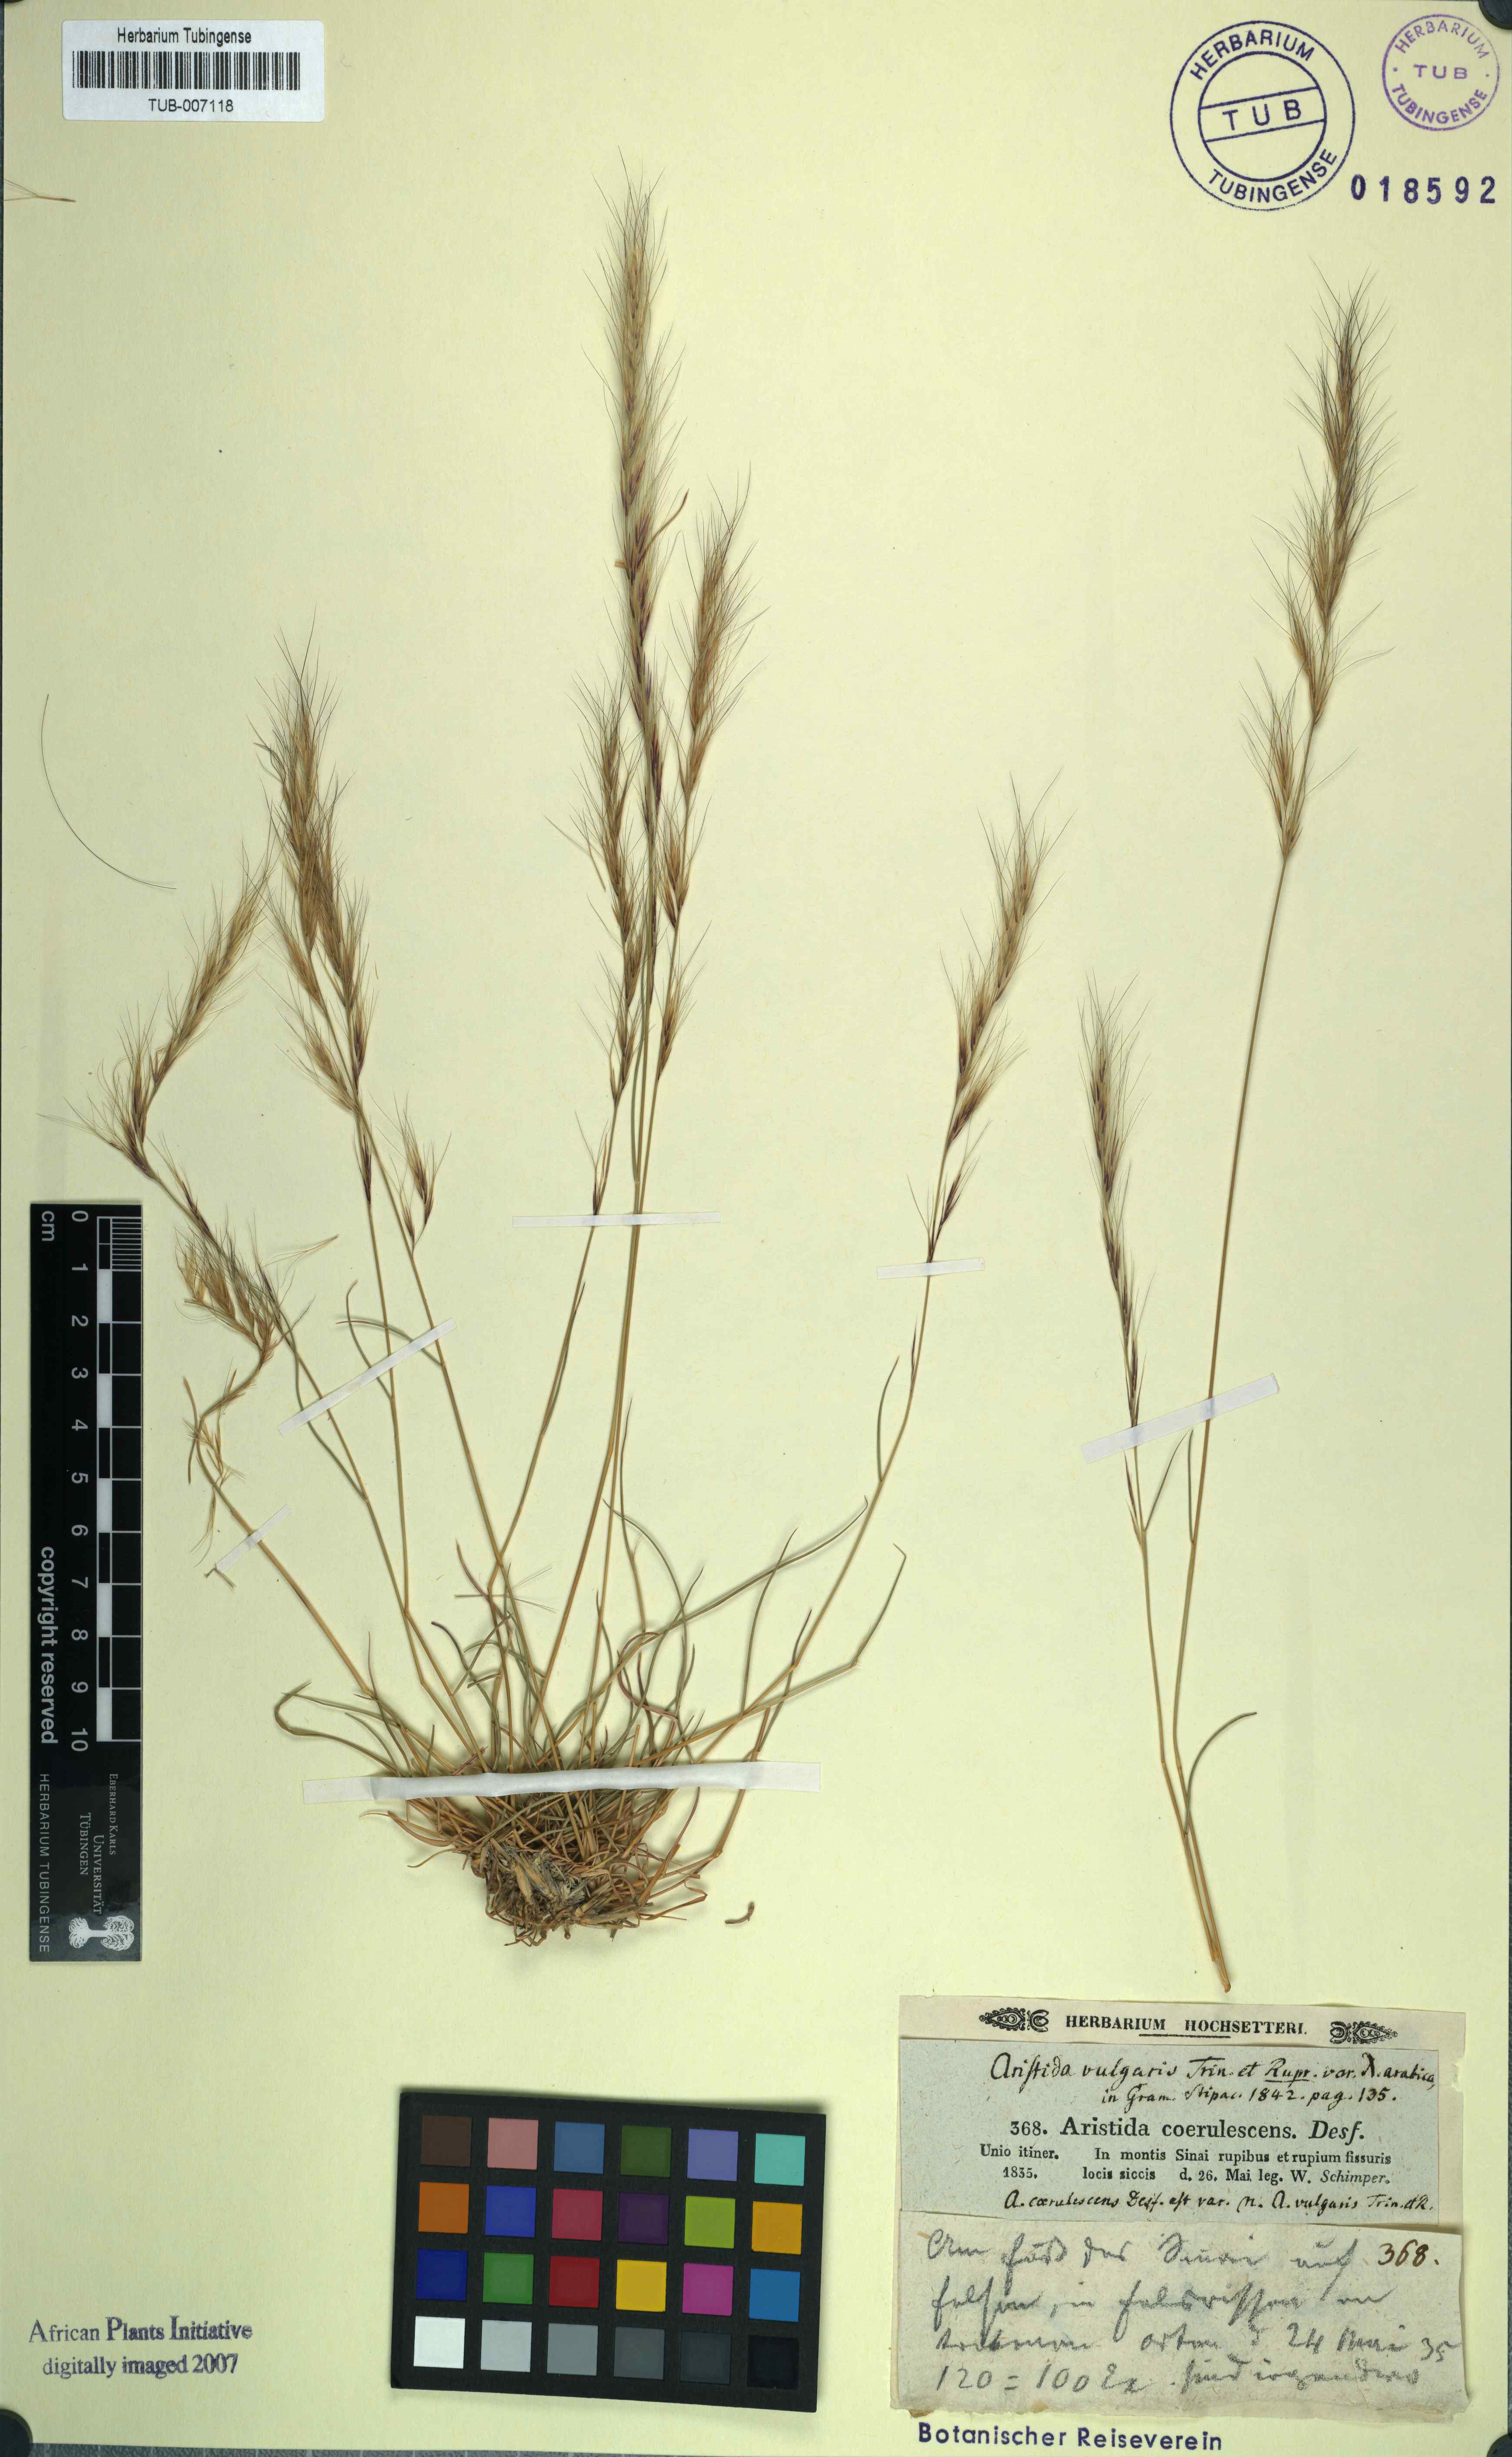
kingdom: Plantae
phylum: Tracheophyta
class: Liliopsida
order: Poales
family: Poaceae
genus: Aristida
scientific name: Aristida adscensionis
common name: Sixweeks threeawn
